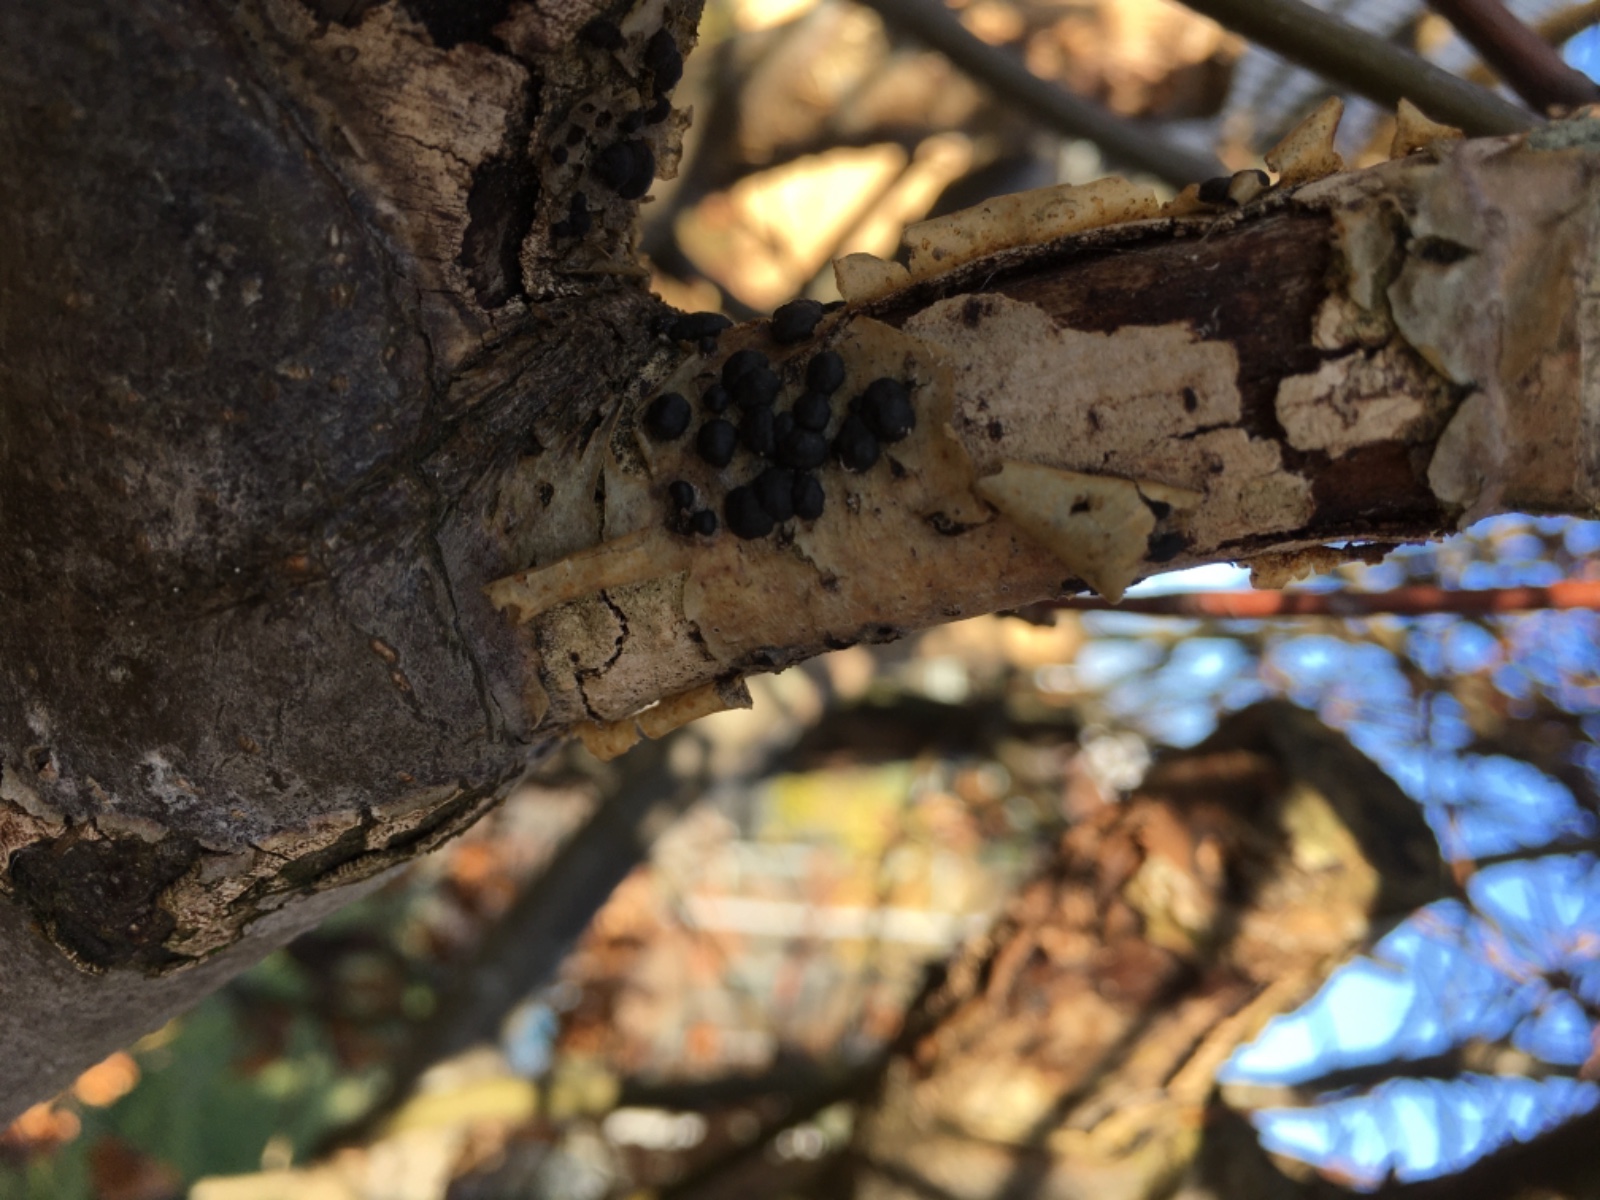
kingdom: Fungi
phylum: Ascomycota
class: Sordariomycetes
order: Xylariales
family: Hypoxylaceae
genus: Jackrogersella
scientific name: Jackrogersella cohaerens
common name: sammenflydende kulbær
